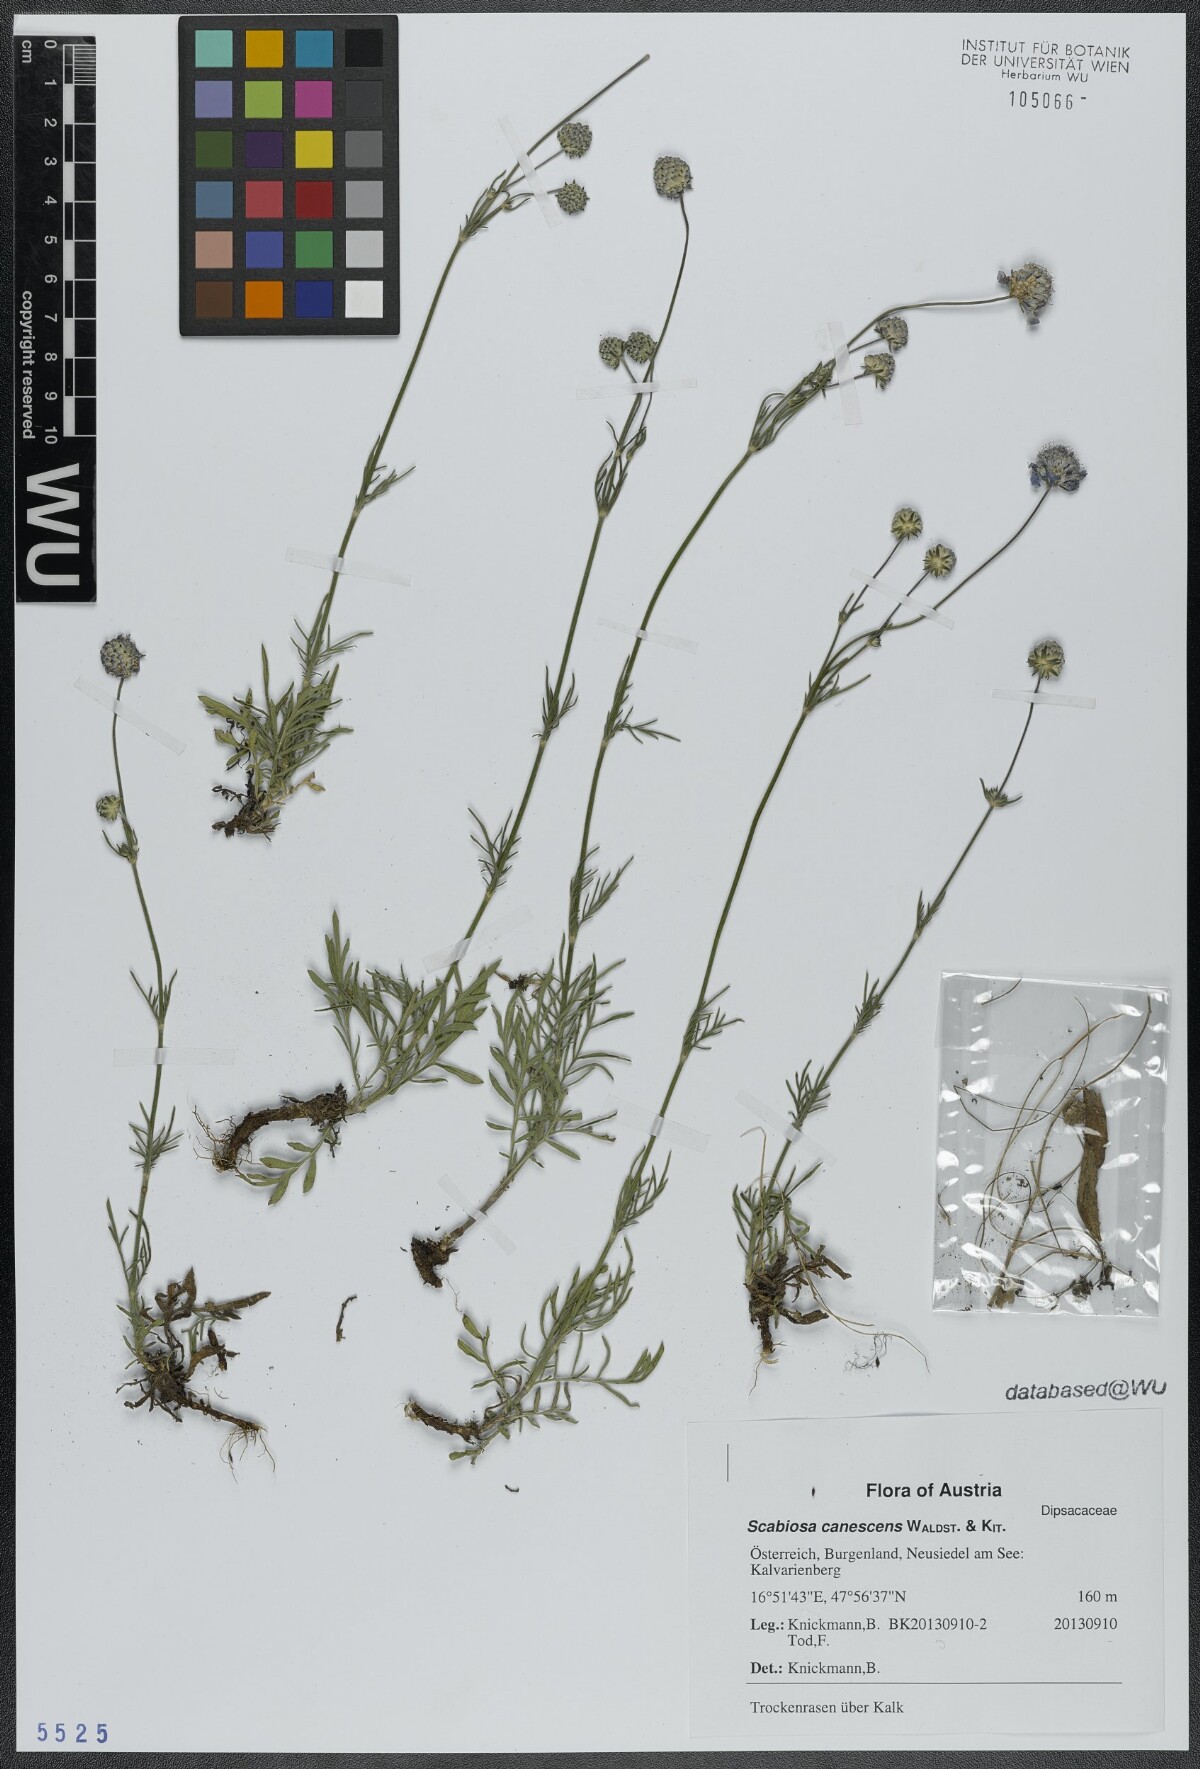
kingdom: Plantae
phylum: Tracheophyta
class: Magnoliopsida
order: Dipsacales
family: Caprifoliaceae
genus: Scabiosa
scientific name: Scabiosa canescens
